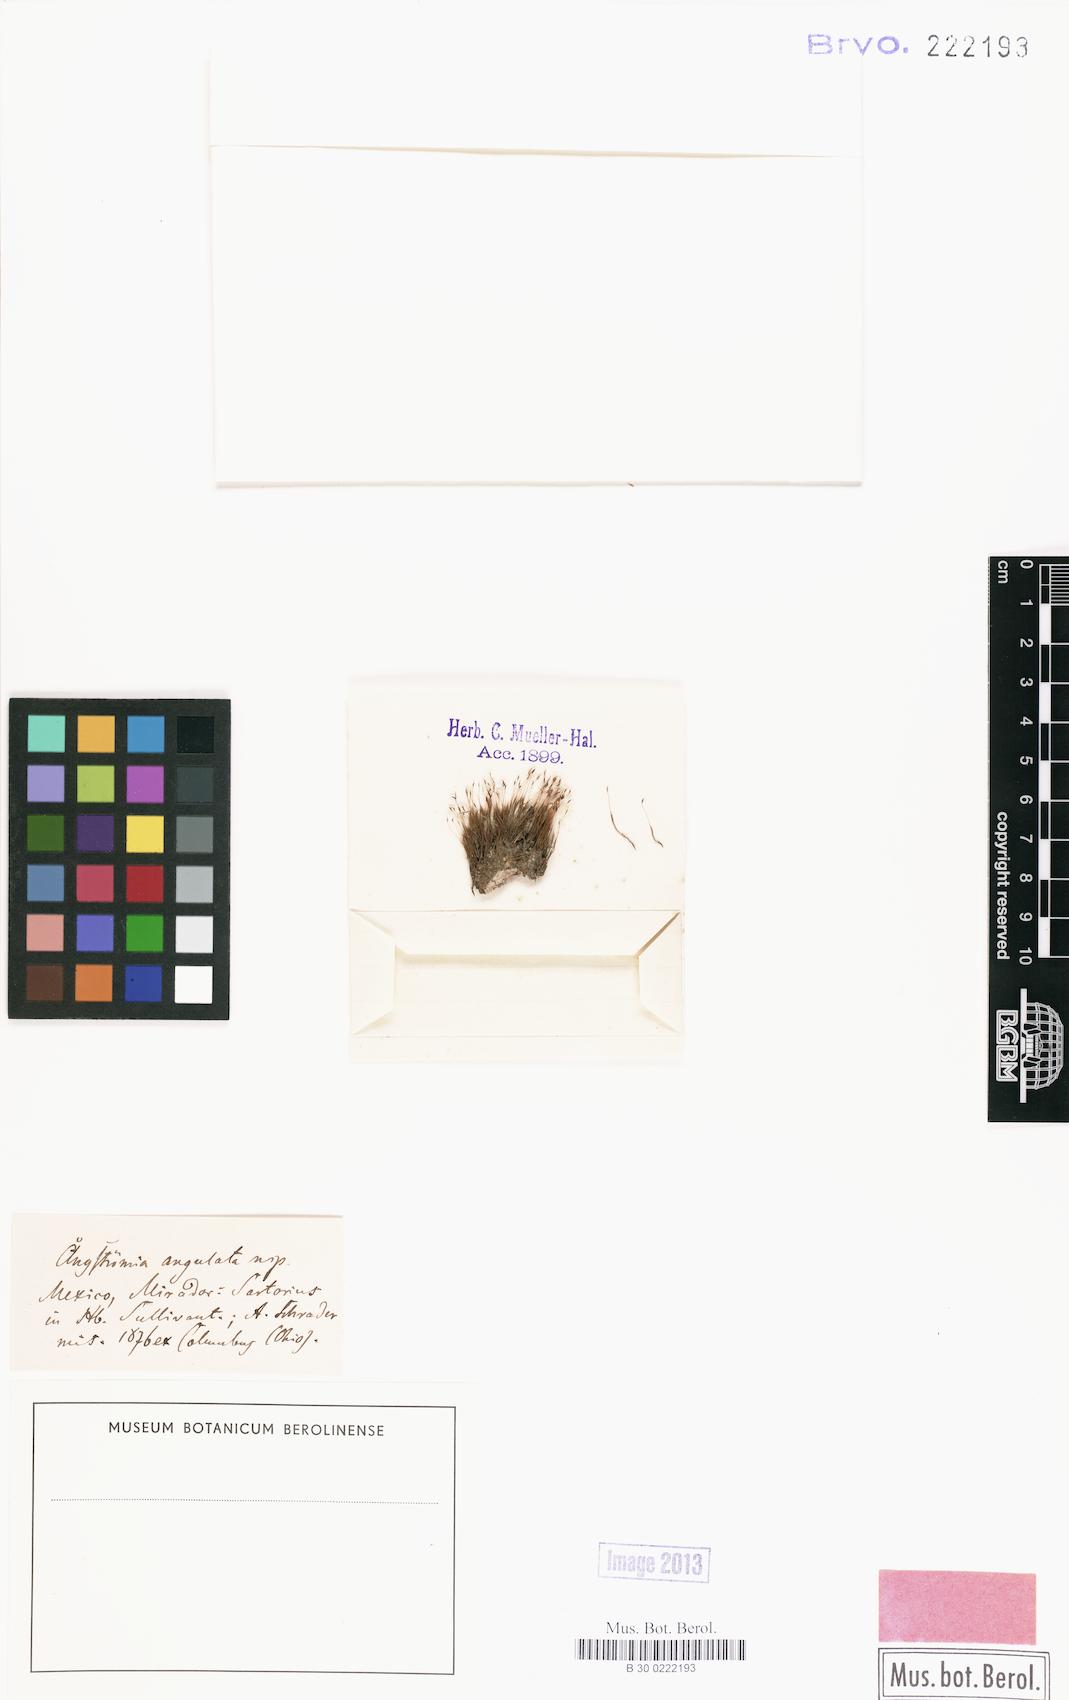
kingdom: Plantae
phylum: Bryophyta
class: Bryopsida
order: Dicranales
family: Aongstroemiaceae
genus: Aongstroemia
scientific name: Aongstroemia
